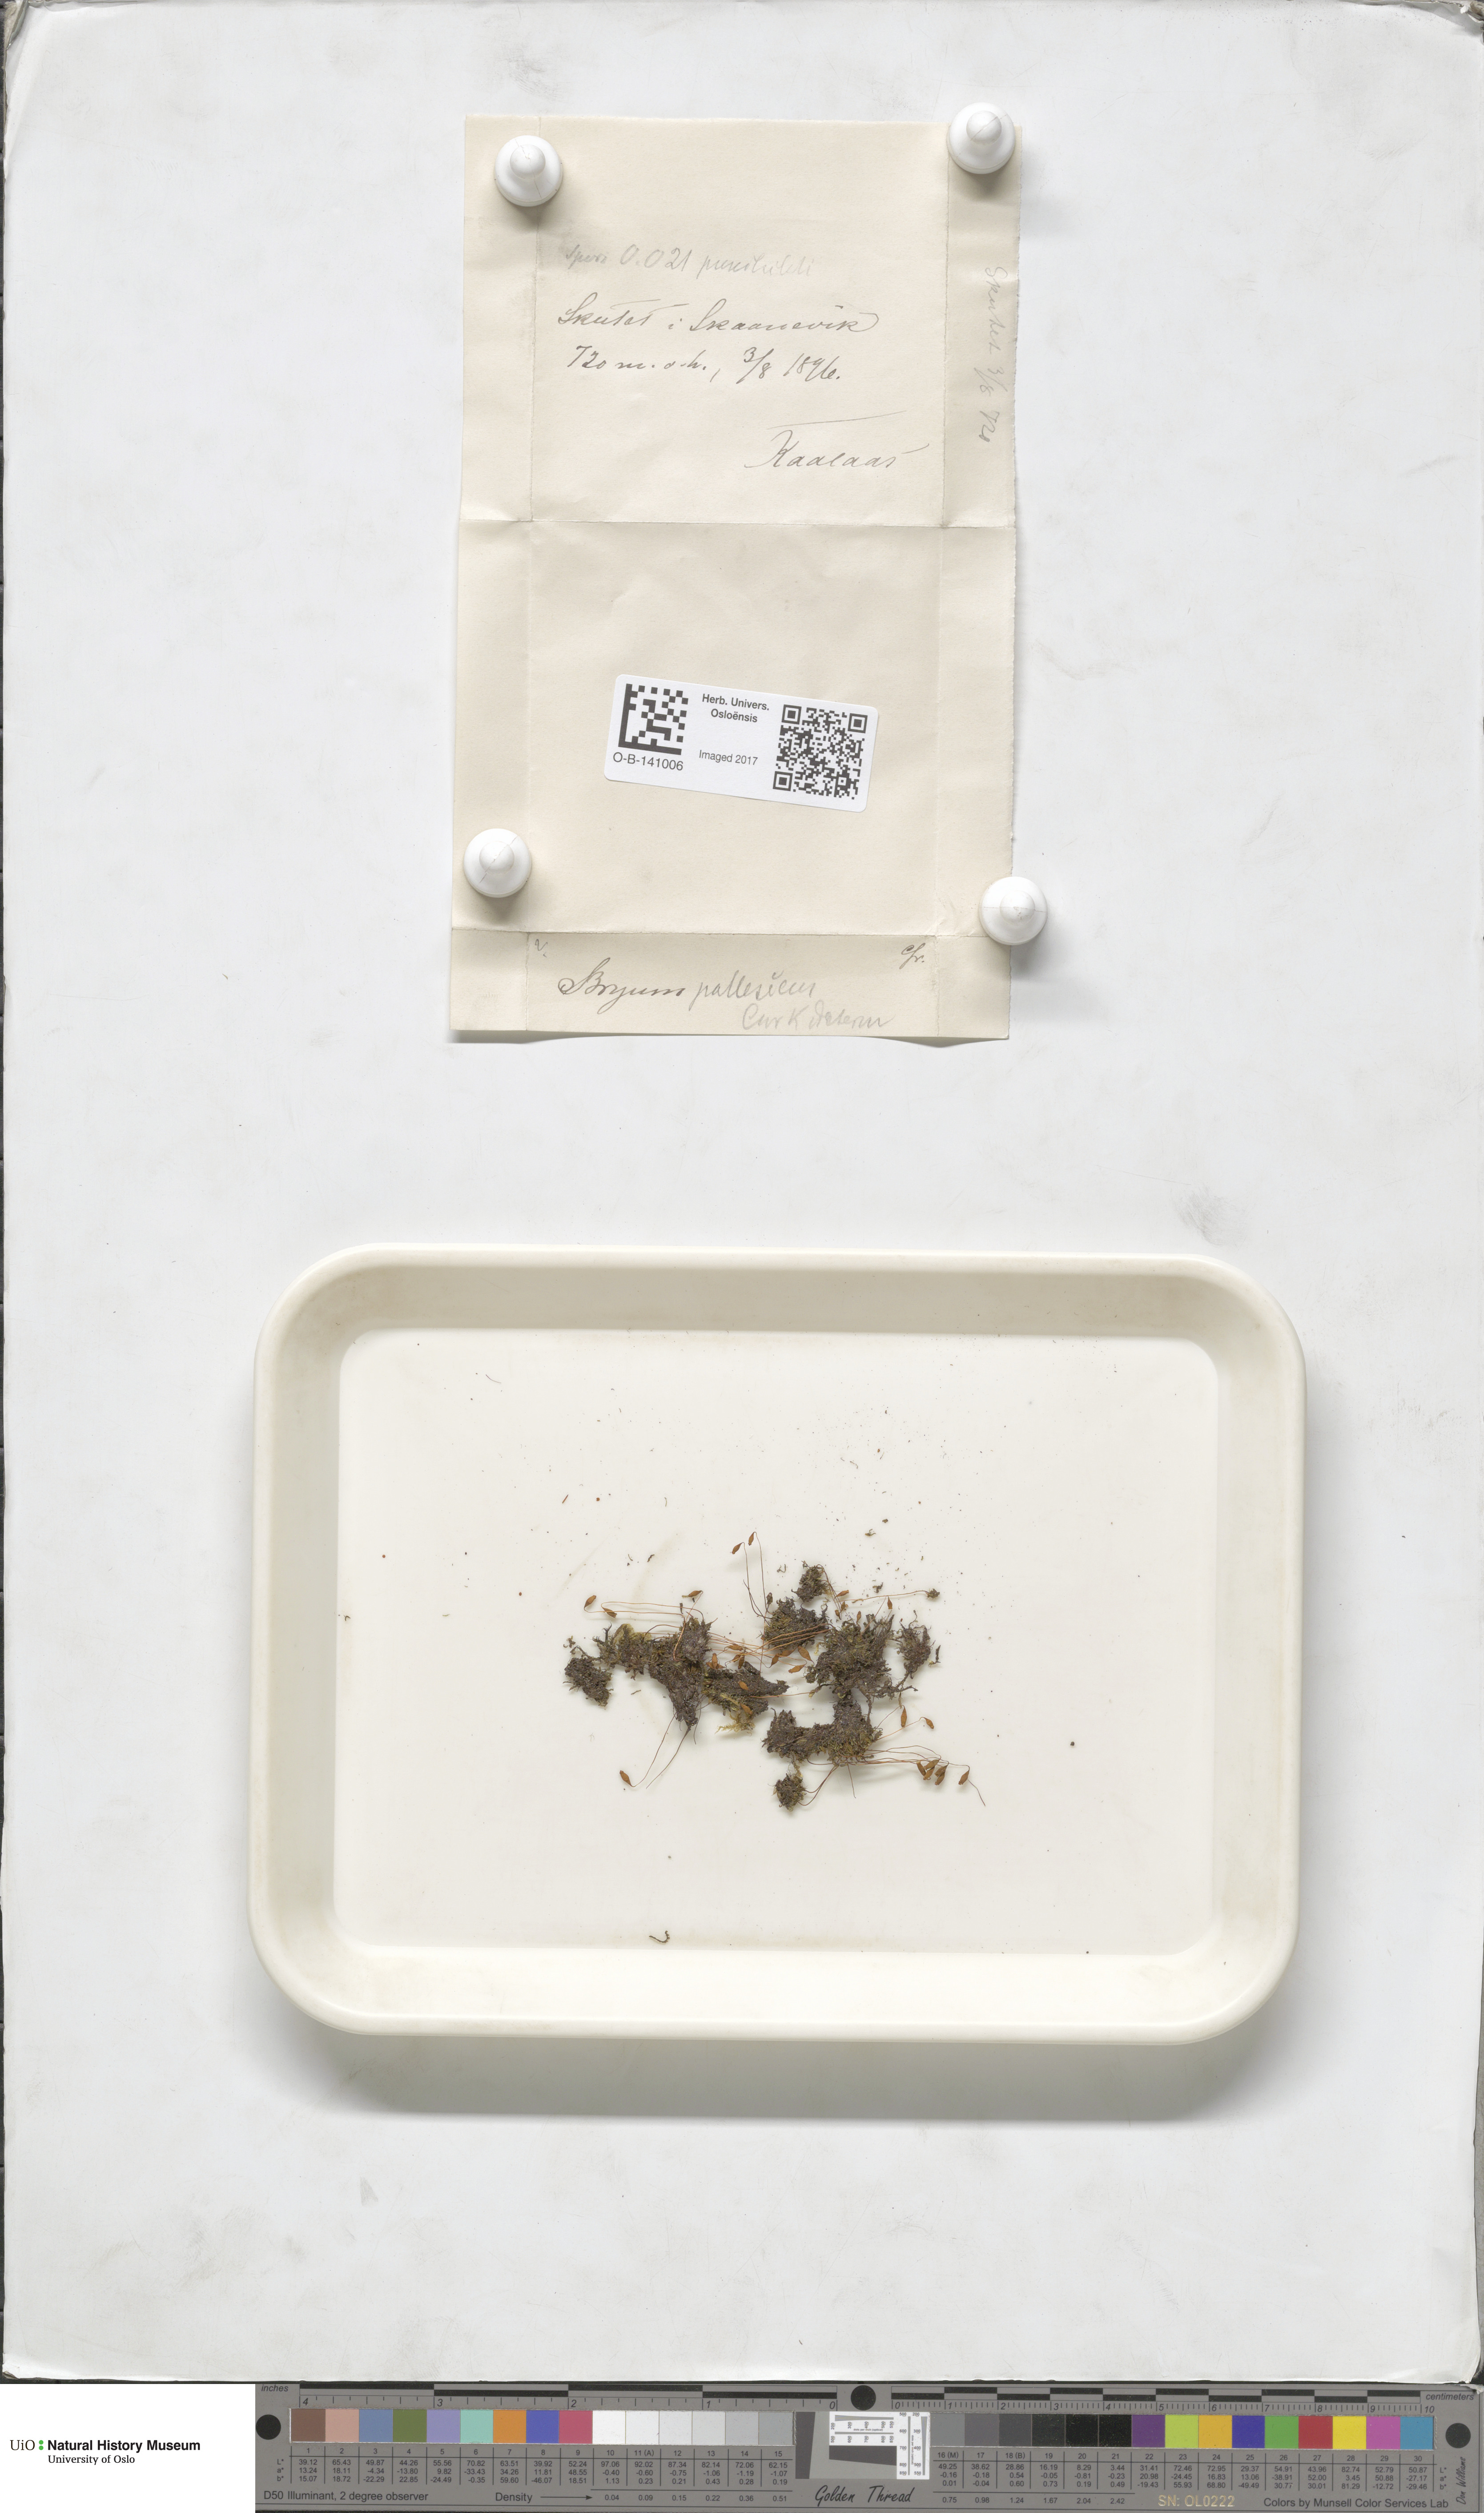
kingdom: Plantae
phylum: Bryophyta
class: Bryopsida
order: Bryales
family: Bryaceae
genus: Ptychostomum
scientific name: Ptychostomum pallescens
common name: Tall-clustered thread-moss
